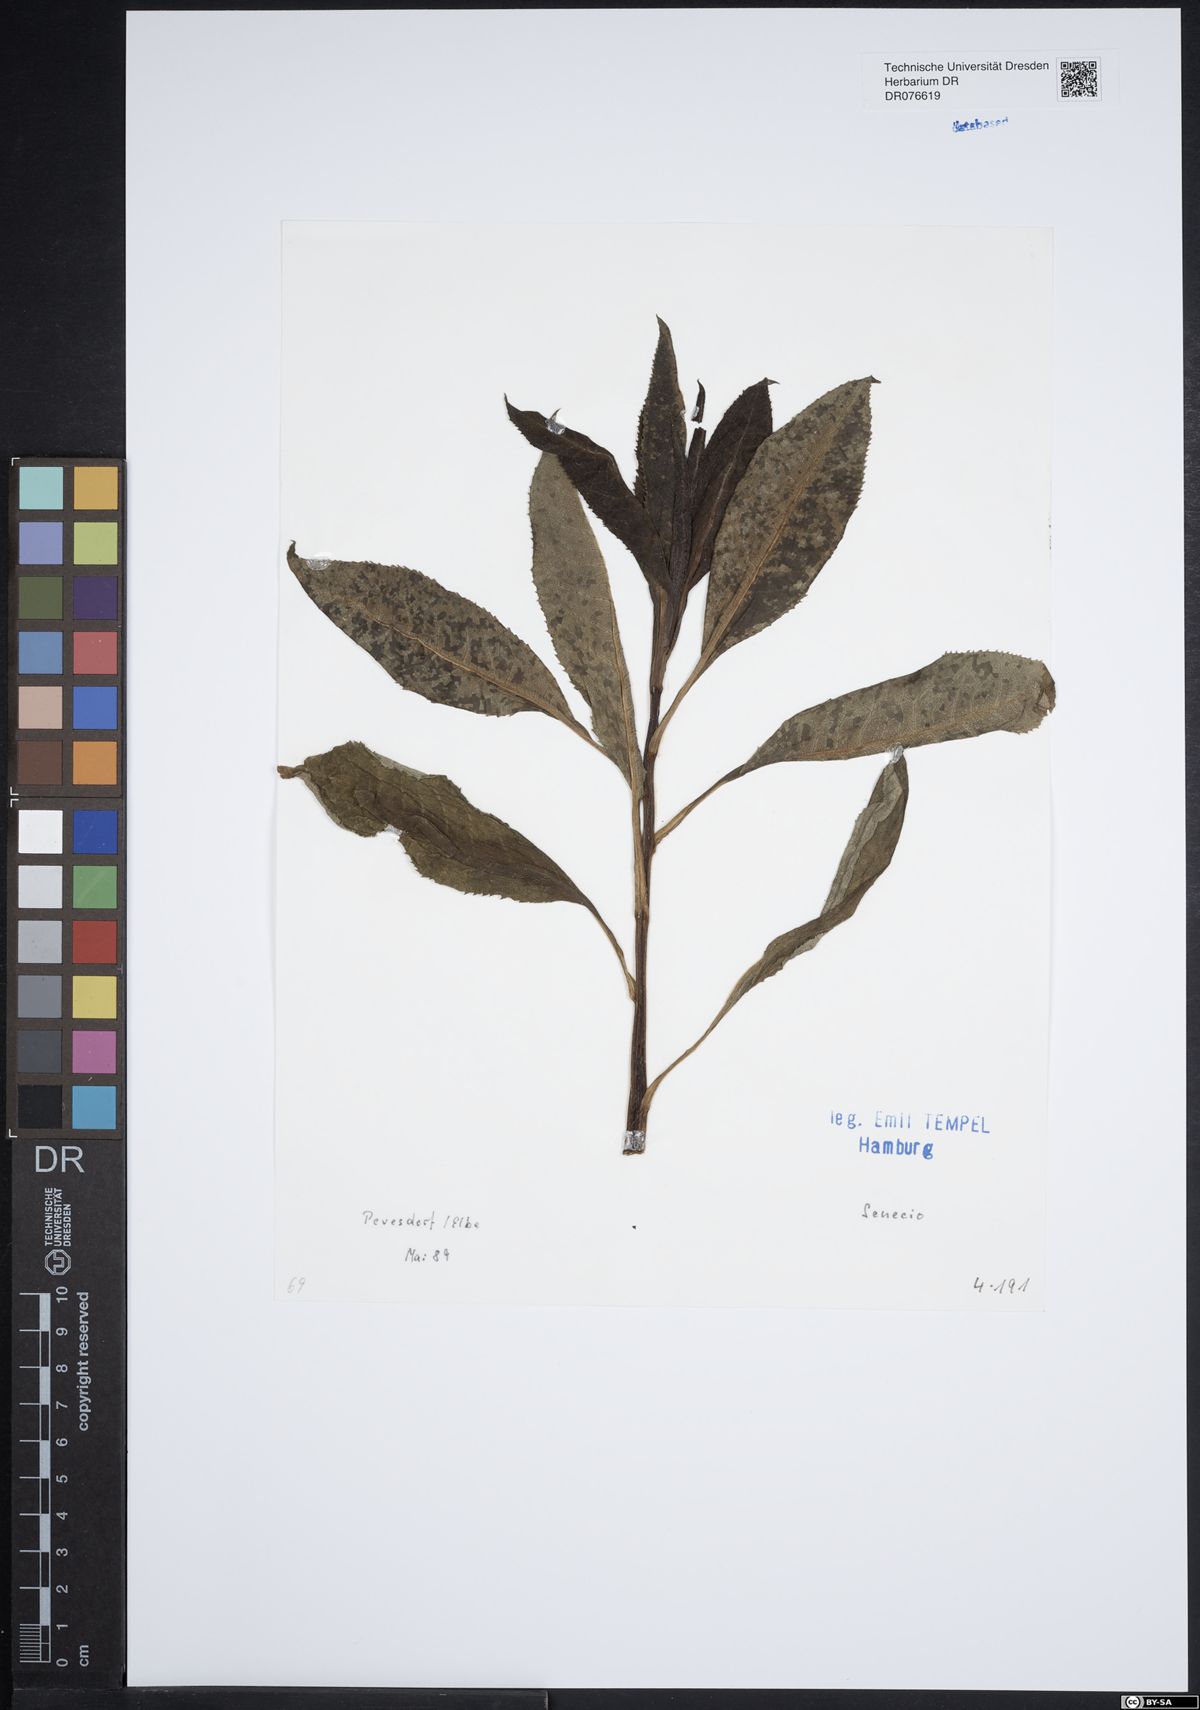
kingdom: Plantae
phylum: Tracheophyta
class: Magnoliopsida
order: Asterales
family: Asteraceae
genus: Senecio
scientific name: Senecio
